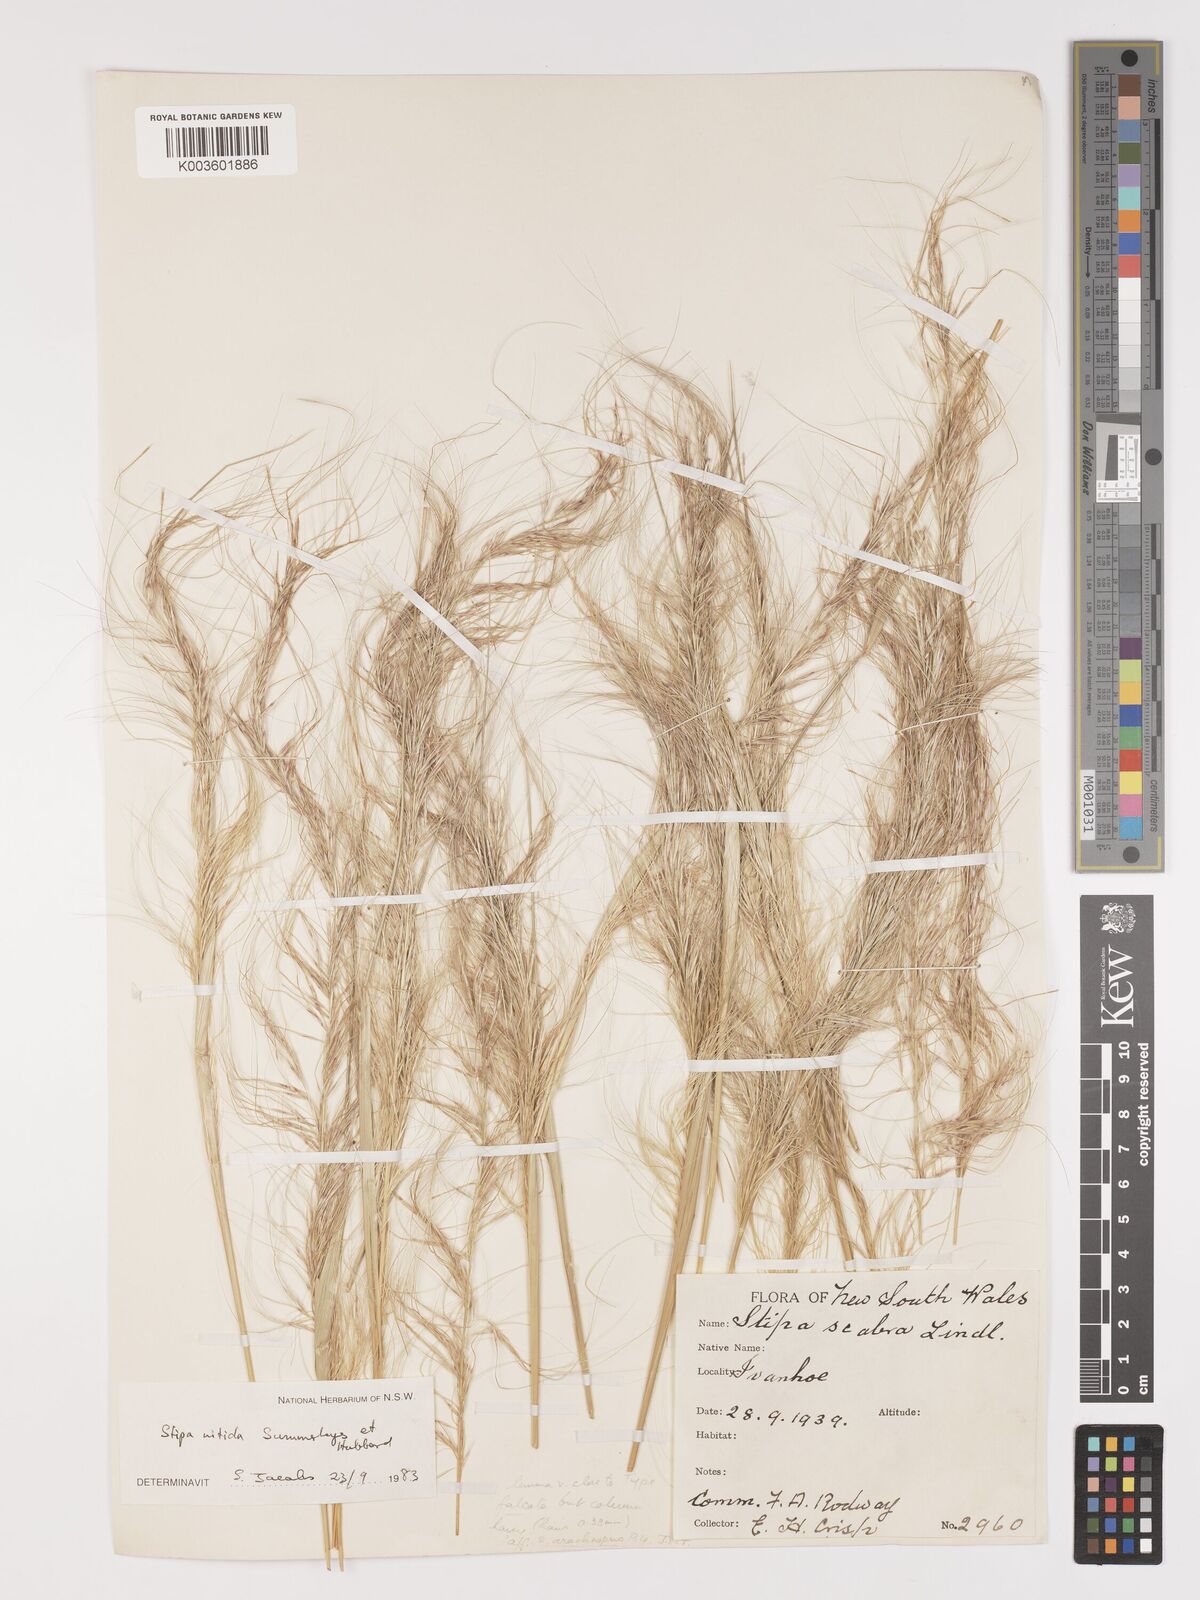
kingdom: Plantae
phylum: Tracheophyta
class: Liliopsida
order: Poales
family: Poaceae
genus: Austrostipa
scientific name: Austrostipa nitida
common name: Balcarra grass
